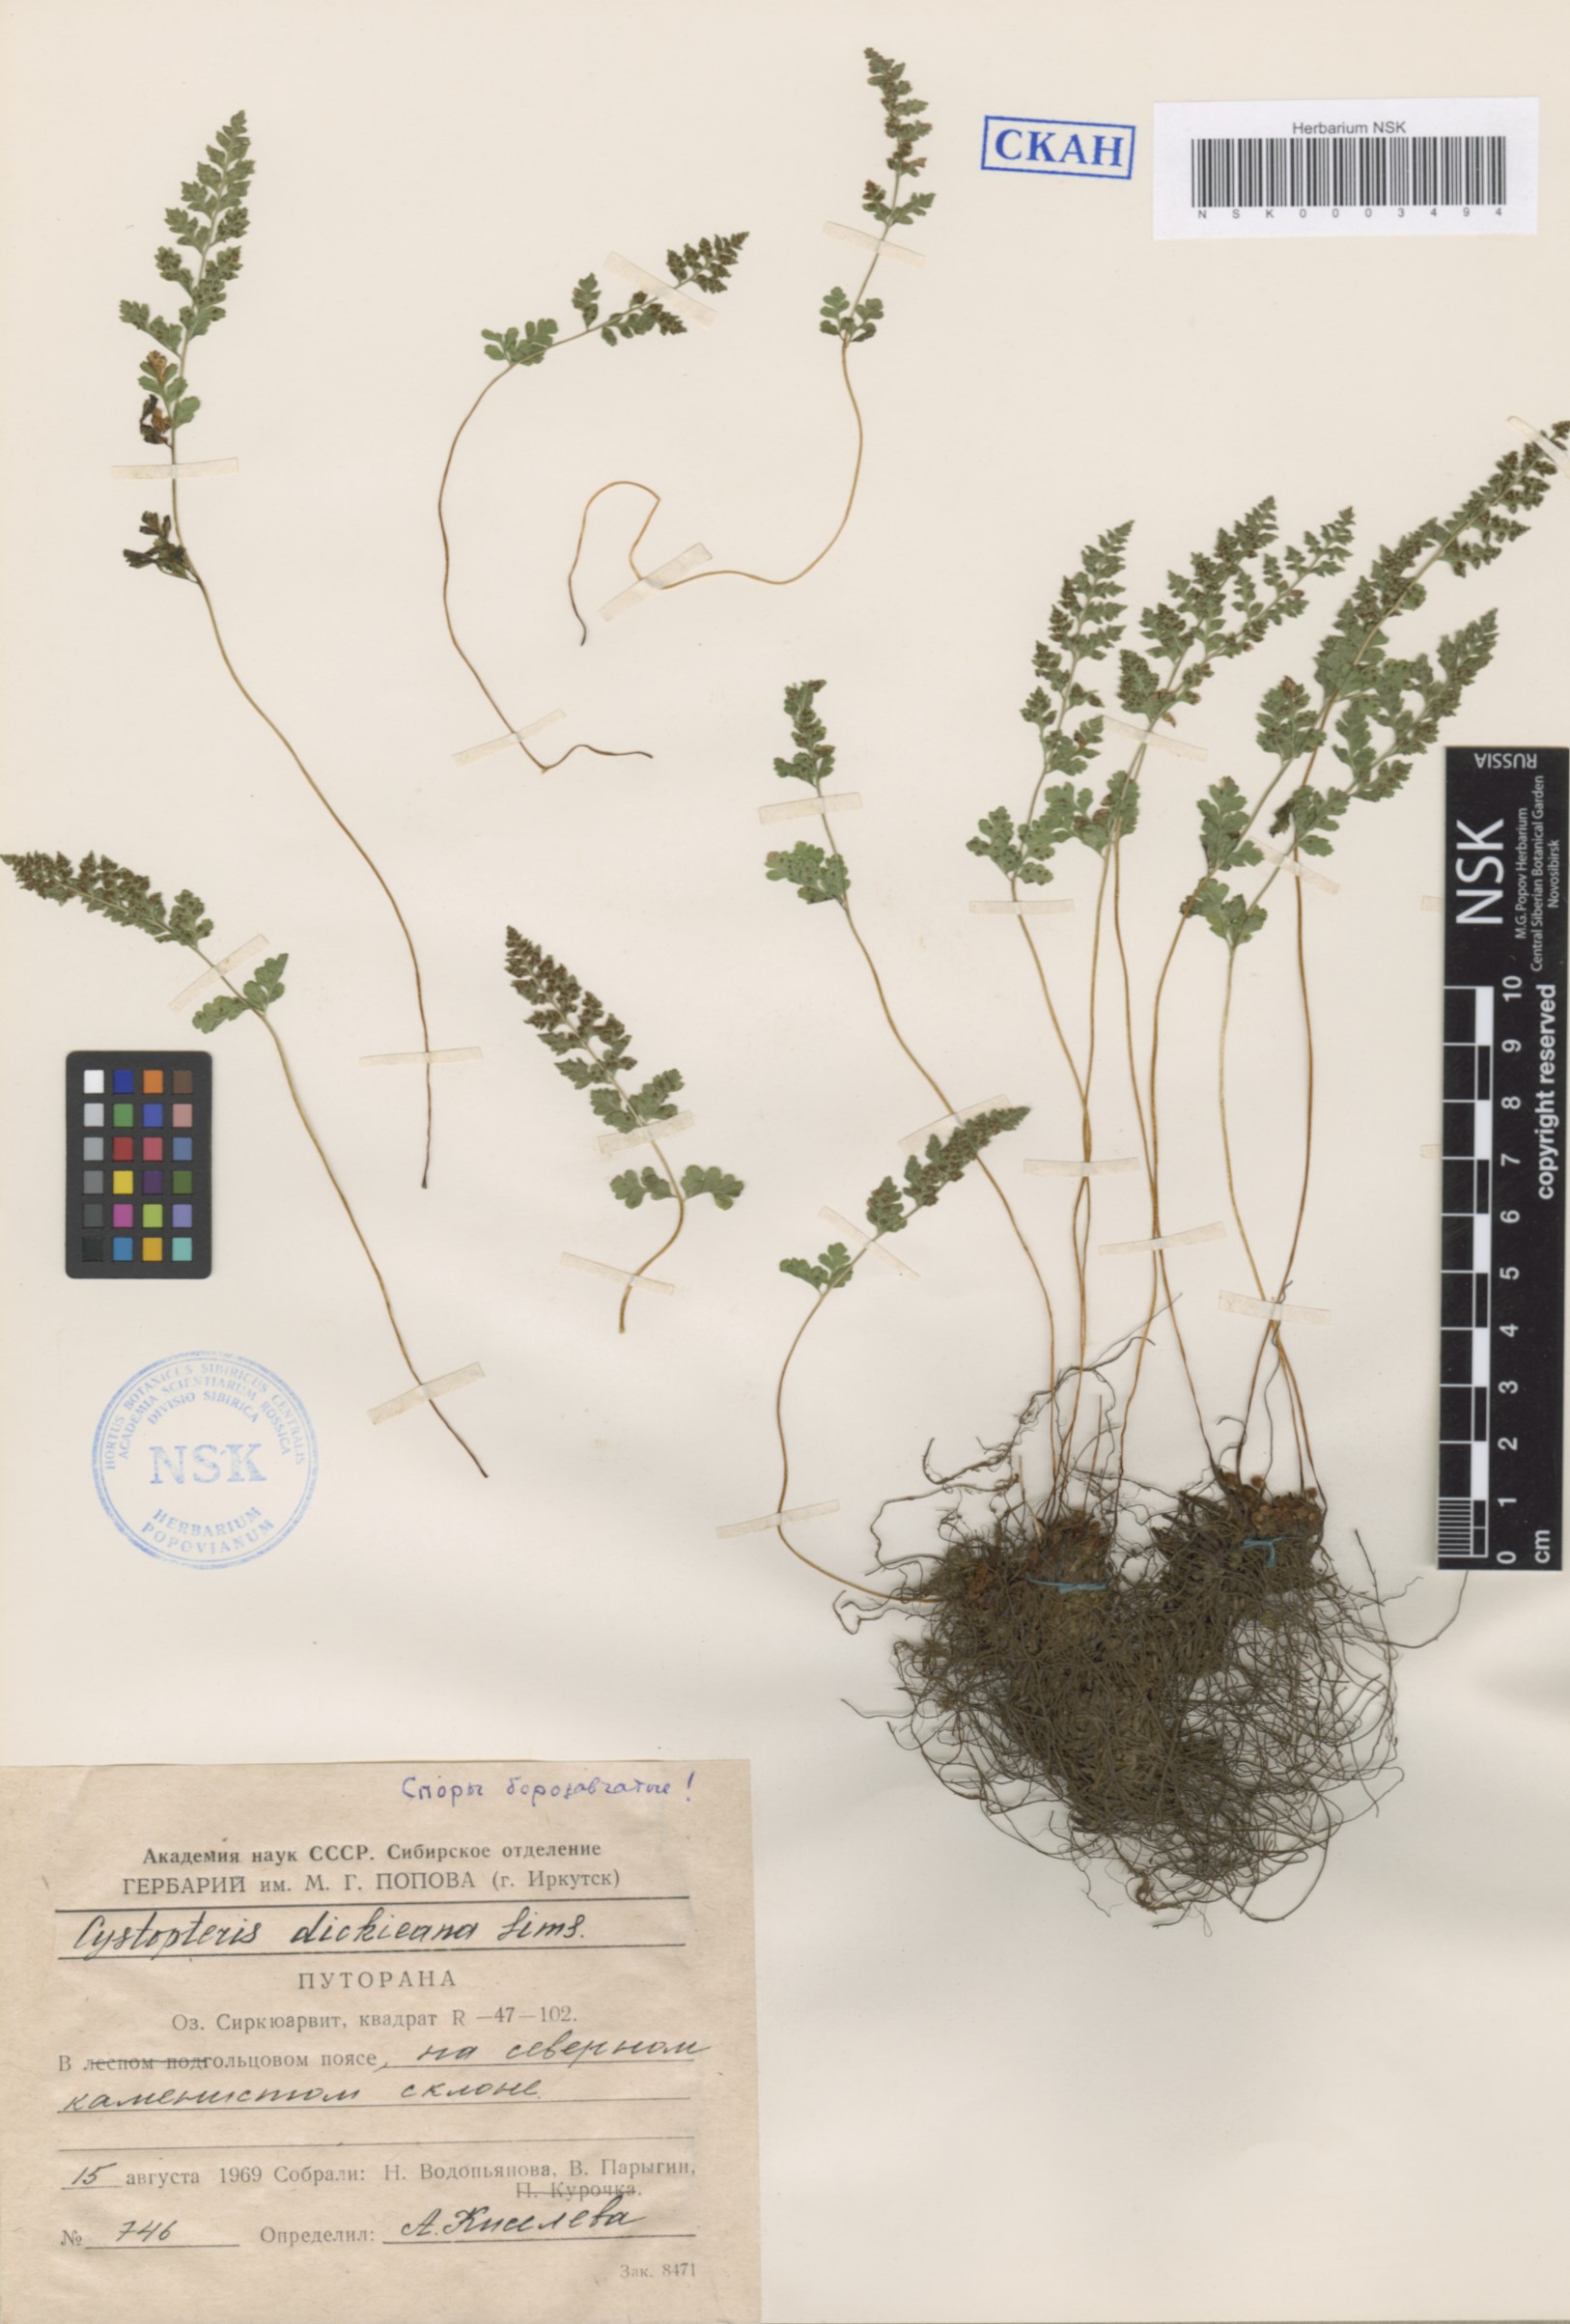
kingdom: Plantae
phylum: Tracheophyta
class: Polypodiopsida
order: Polypodiales
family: Cystopteridaceae
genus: Cystopteris
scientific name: Cystopteris dickieana
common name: Dickie's bladder-fern
